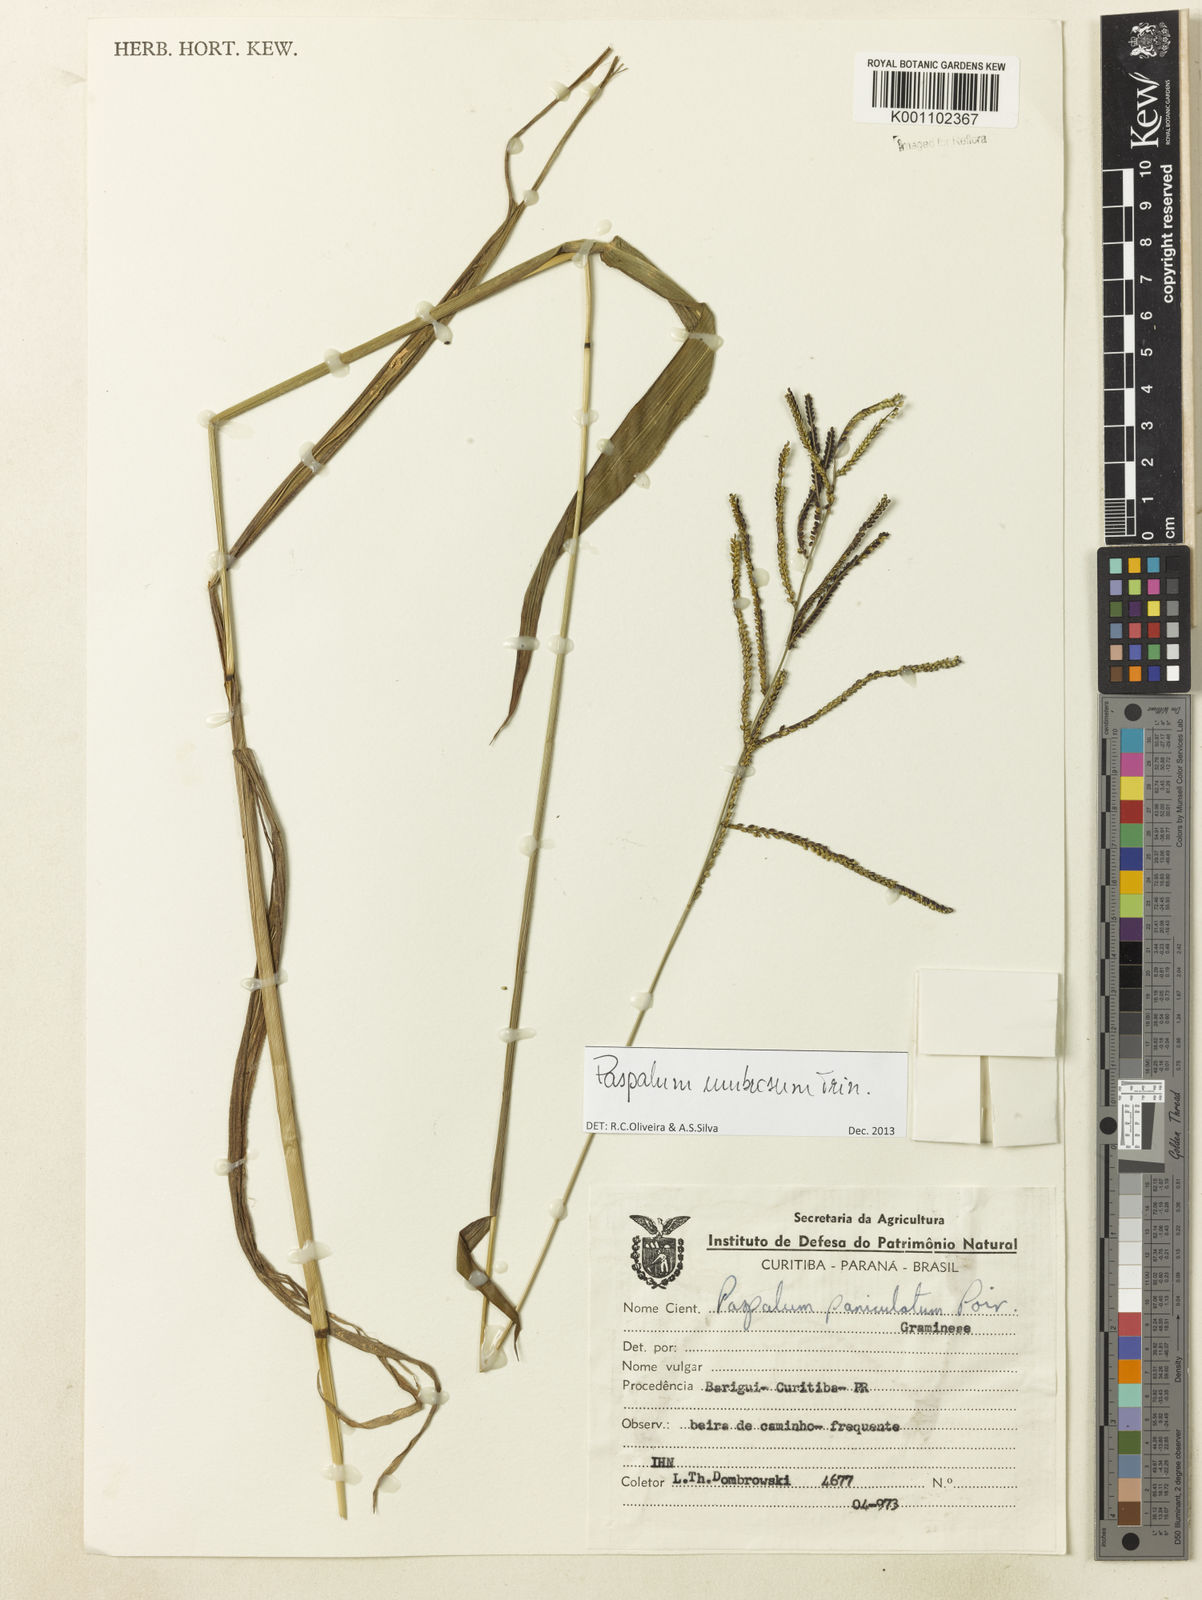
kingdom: Plantae
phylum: Tracheophyta
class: Liliopsida
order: Poales
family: Poaceae
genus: Paspalum
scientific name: Paspalum umbrosum
